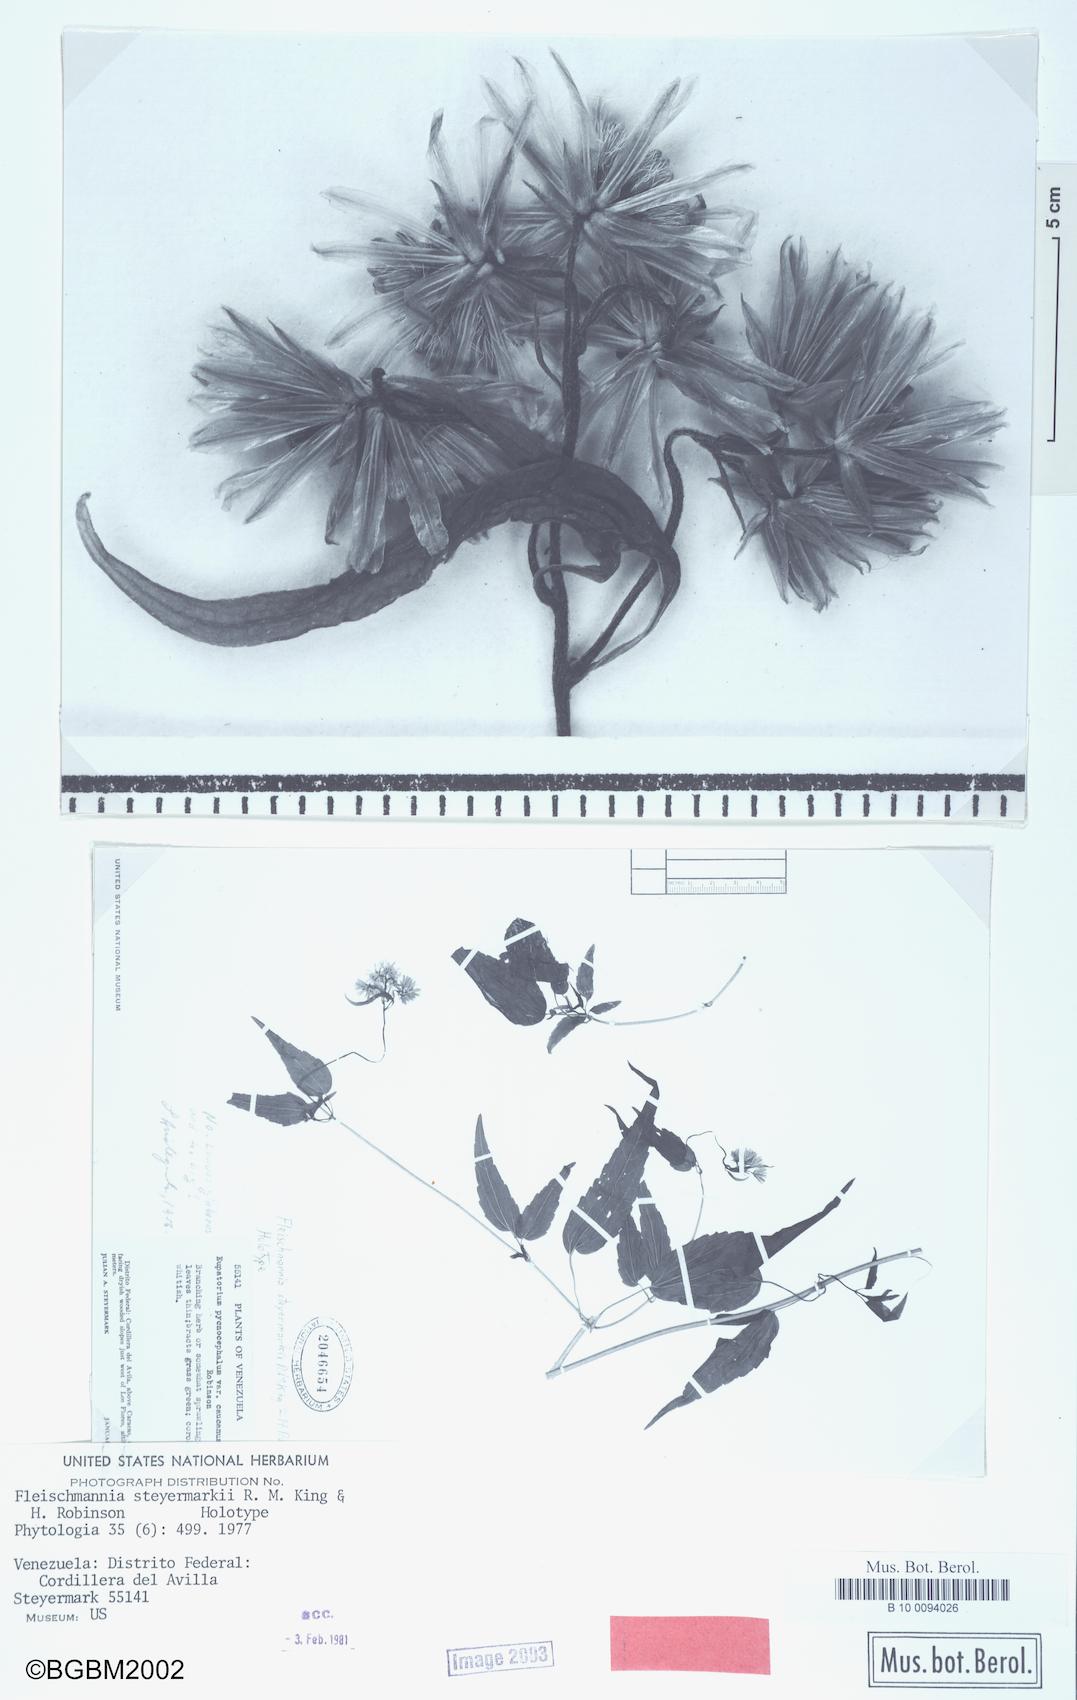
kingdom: Plantae
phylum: Tracheophyta
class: Magnoliopsida
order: Asterales
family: Asteraceae
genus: Fleischmannia
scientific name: Fleischmannia steyermarkii
